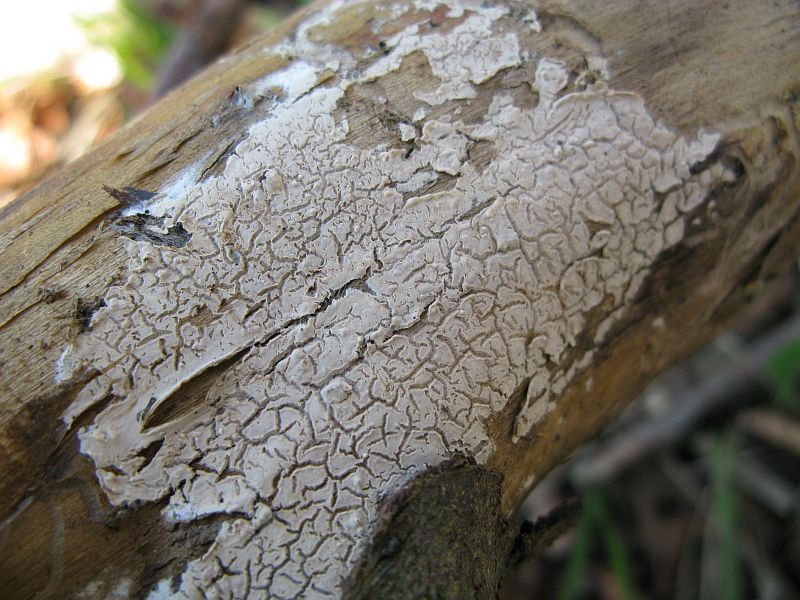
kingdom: Fungi
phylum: Basidiomycota
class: Agaricomycetes
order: Agaricales
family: Physalacriaceae
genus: Cylindrobasidium
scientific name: Cylindrobasidium evolvens
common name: sprækkehinde
